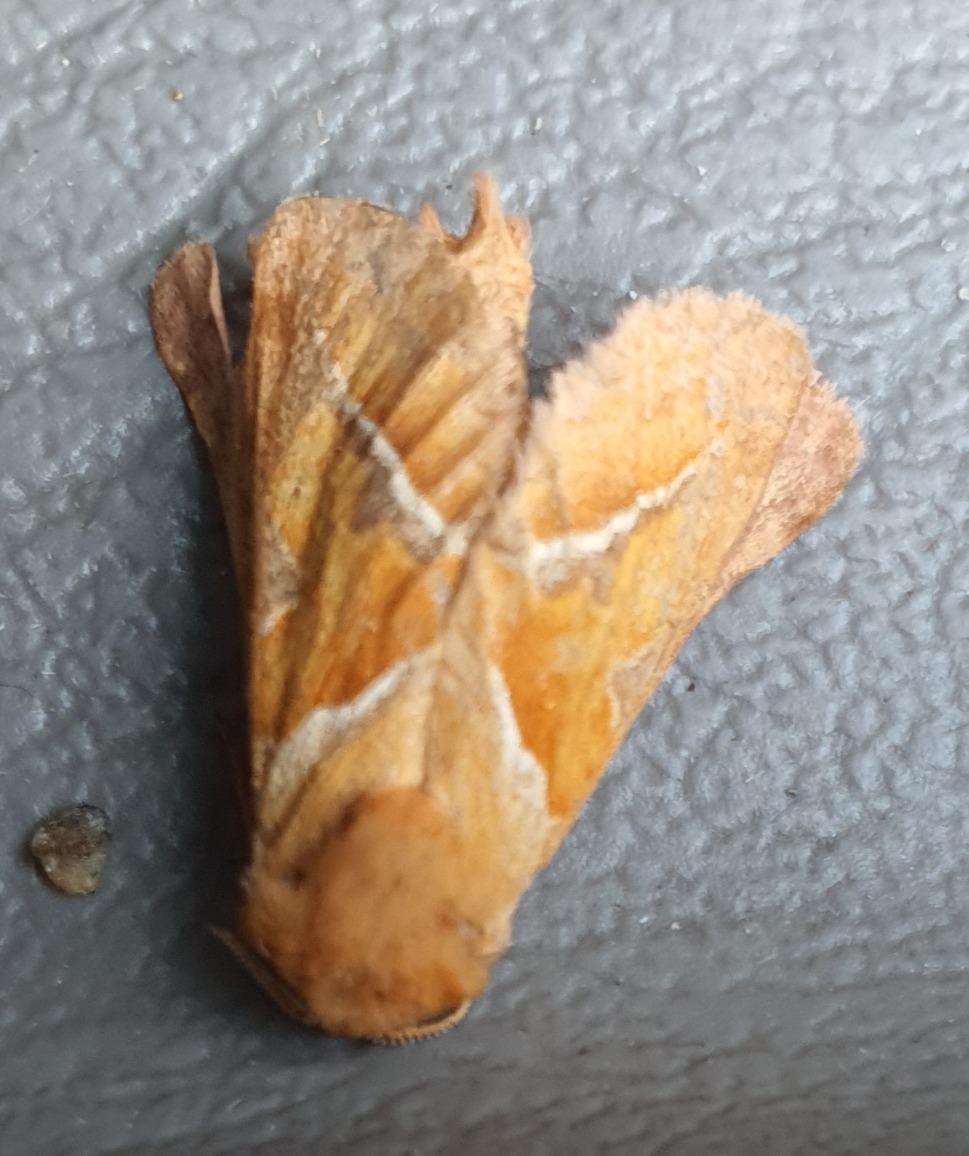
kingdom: Animalia
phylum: Arthropoda
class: Insecta
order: Lepidoptera
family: Hepialidae
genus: Triodia
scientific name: Triodia sylvina
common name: Skræpperodæder
